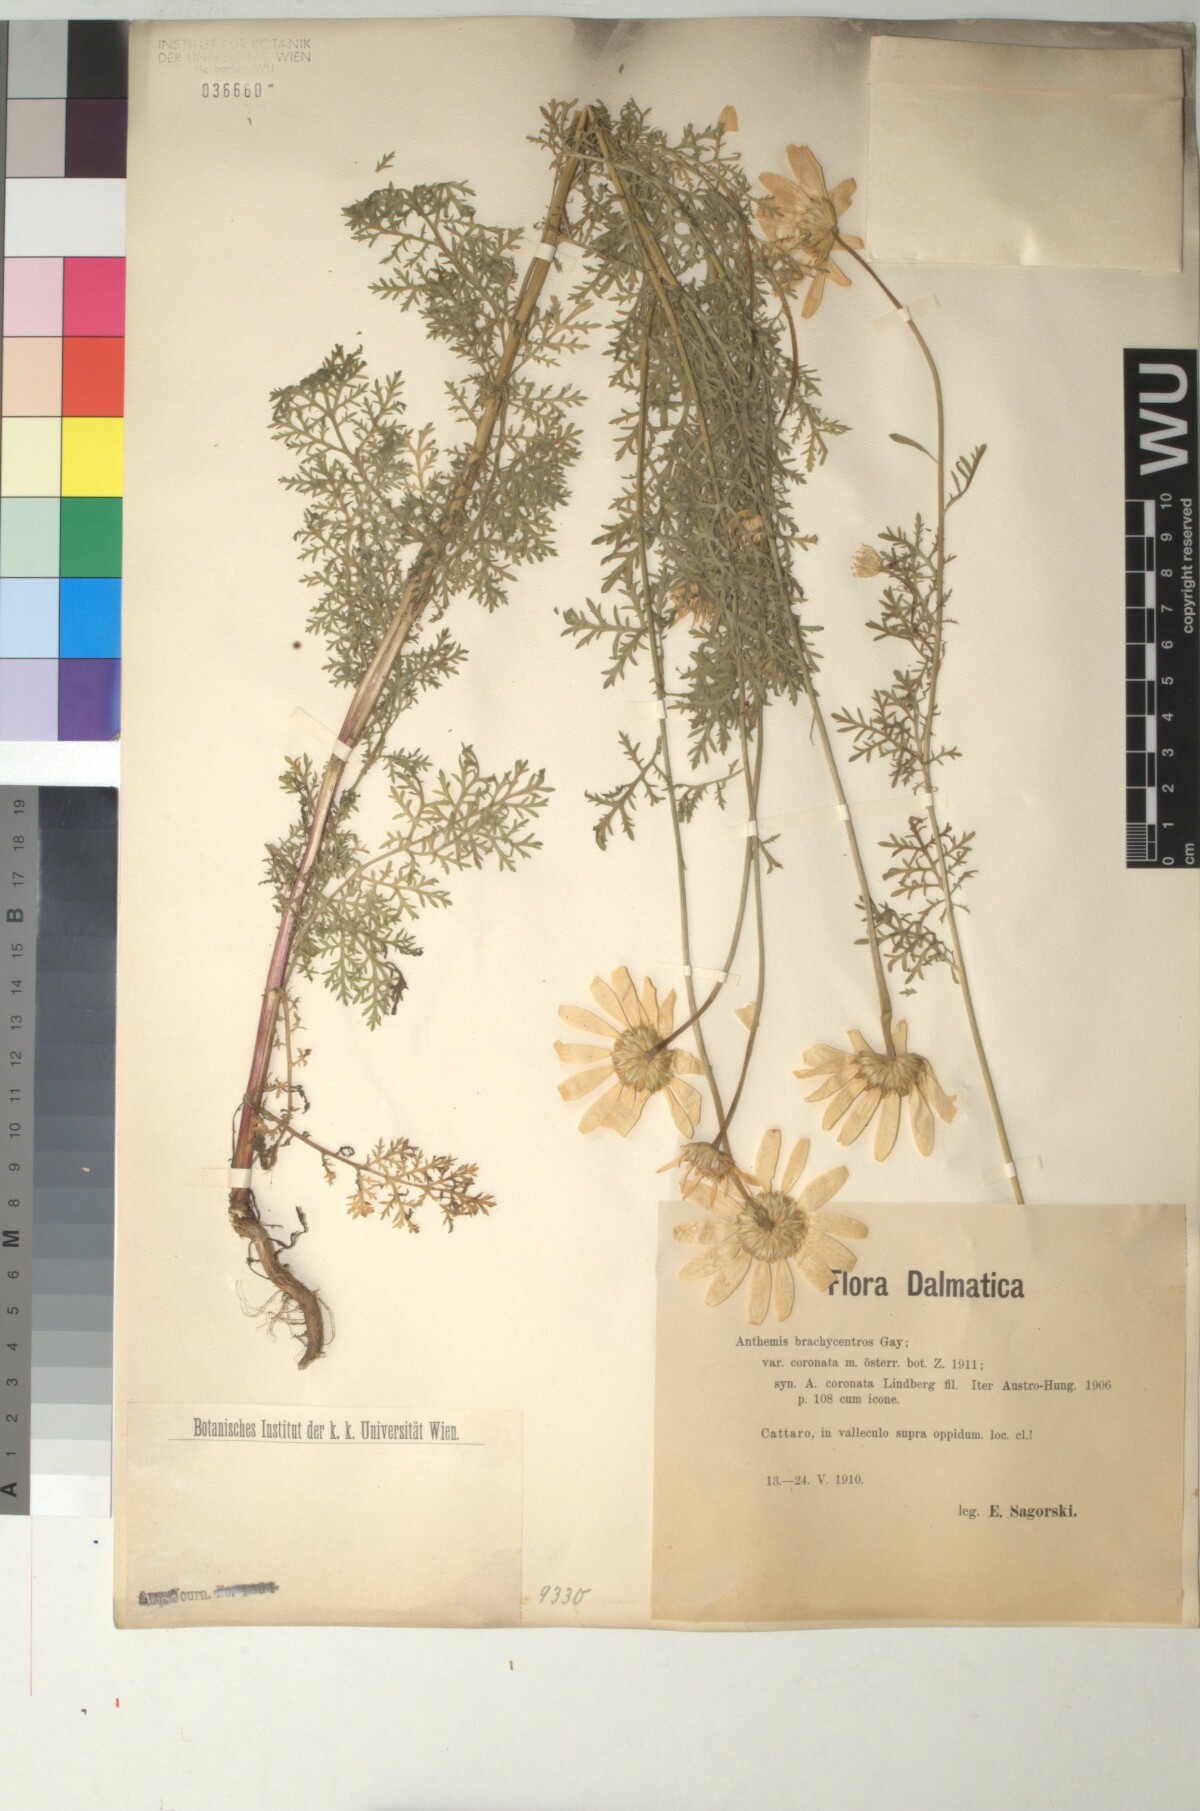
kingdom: Plantae
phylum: Tracheophyta
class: Magnoliopsida
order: Asterales
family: Asteraceae
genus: Cota
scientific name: Cota segetalis
